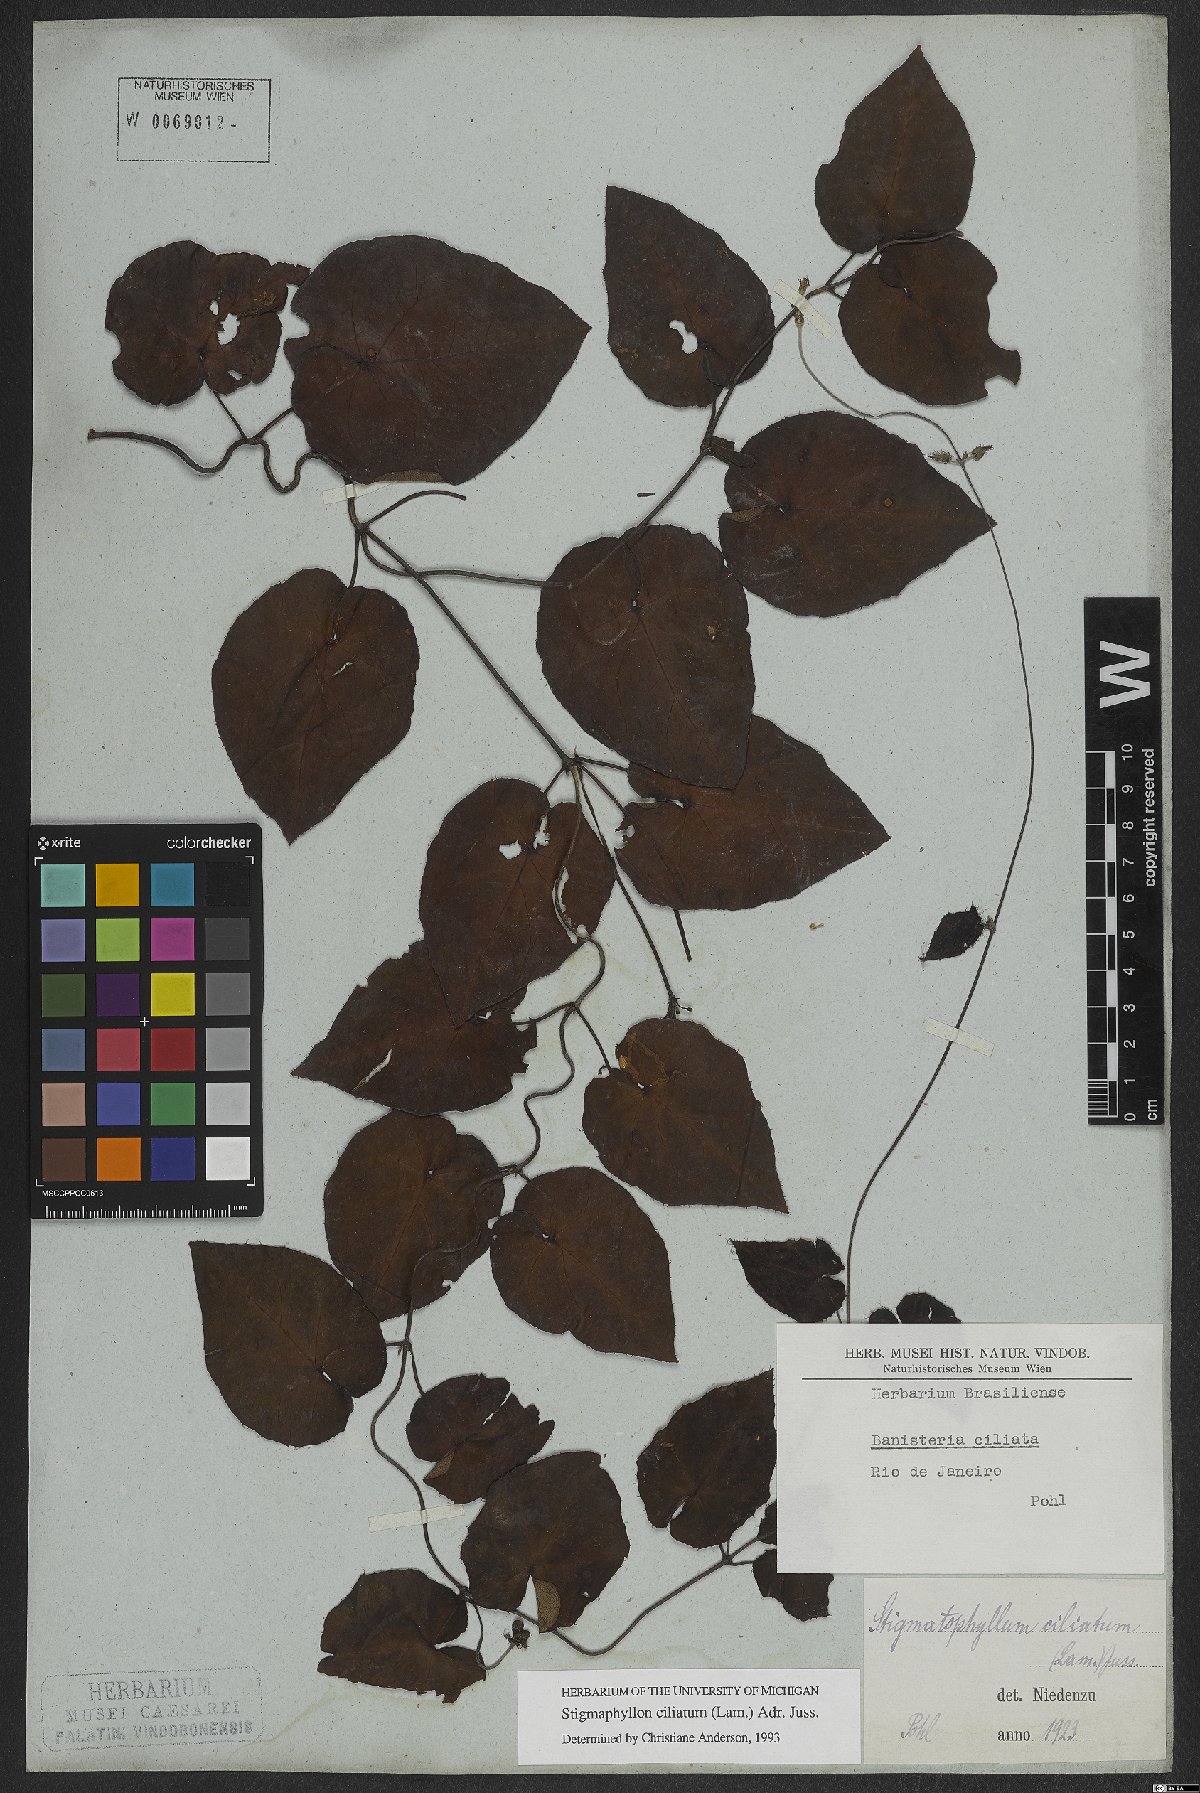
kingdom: Plantae
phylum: Tracheophyta
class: Magnoliopsida
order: Malpighiales
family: Malpighiaceae
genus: Stigmaphyllon
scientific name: Stigmaphyllon ciliatum
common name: Amazonvine
